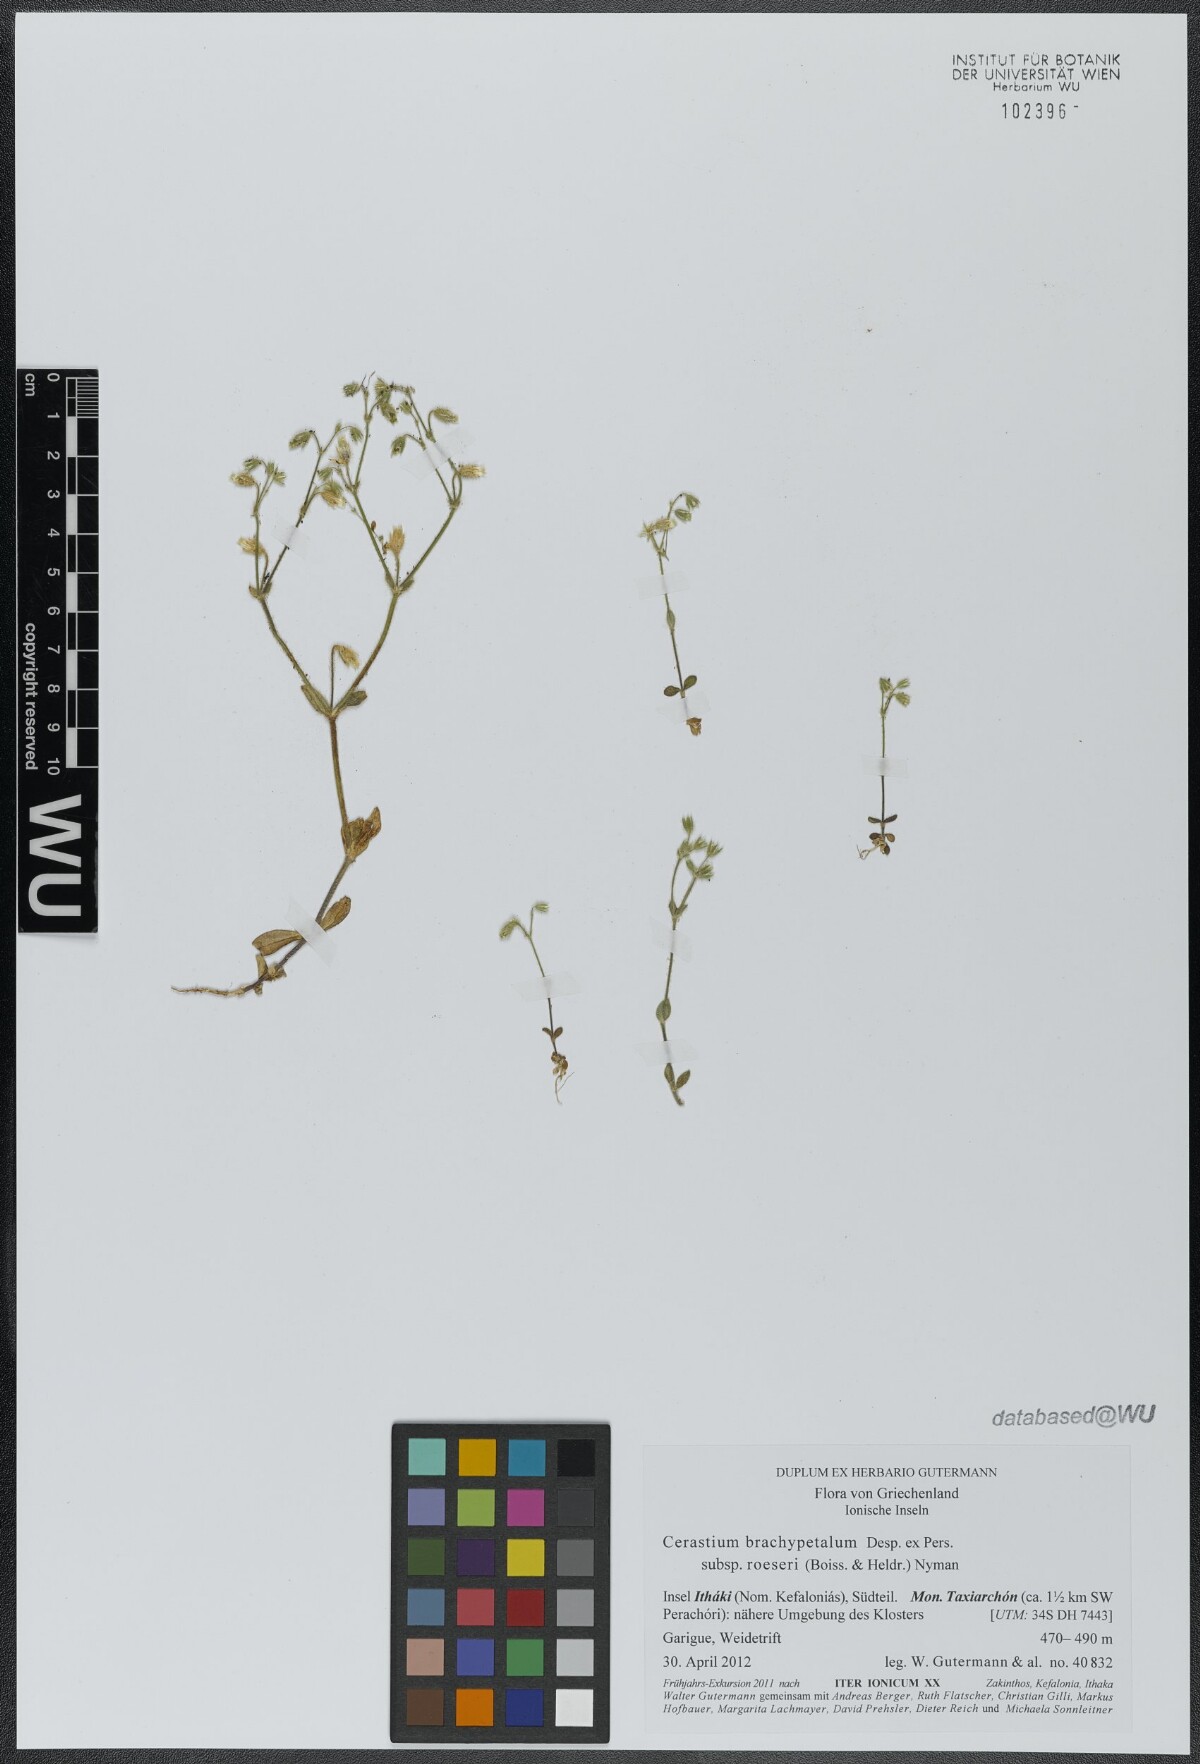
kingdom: Plantae
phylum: Tracheophyta
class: Magnoliopsida
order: Caryophyllales
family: Caryophyllaceae
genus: Cerastium
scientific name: Cerastium brachypetalum
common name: Grey mouse-ear
